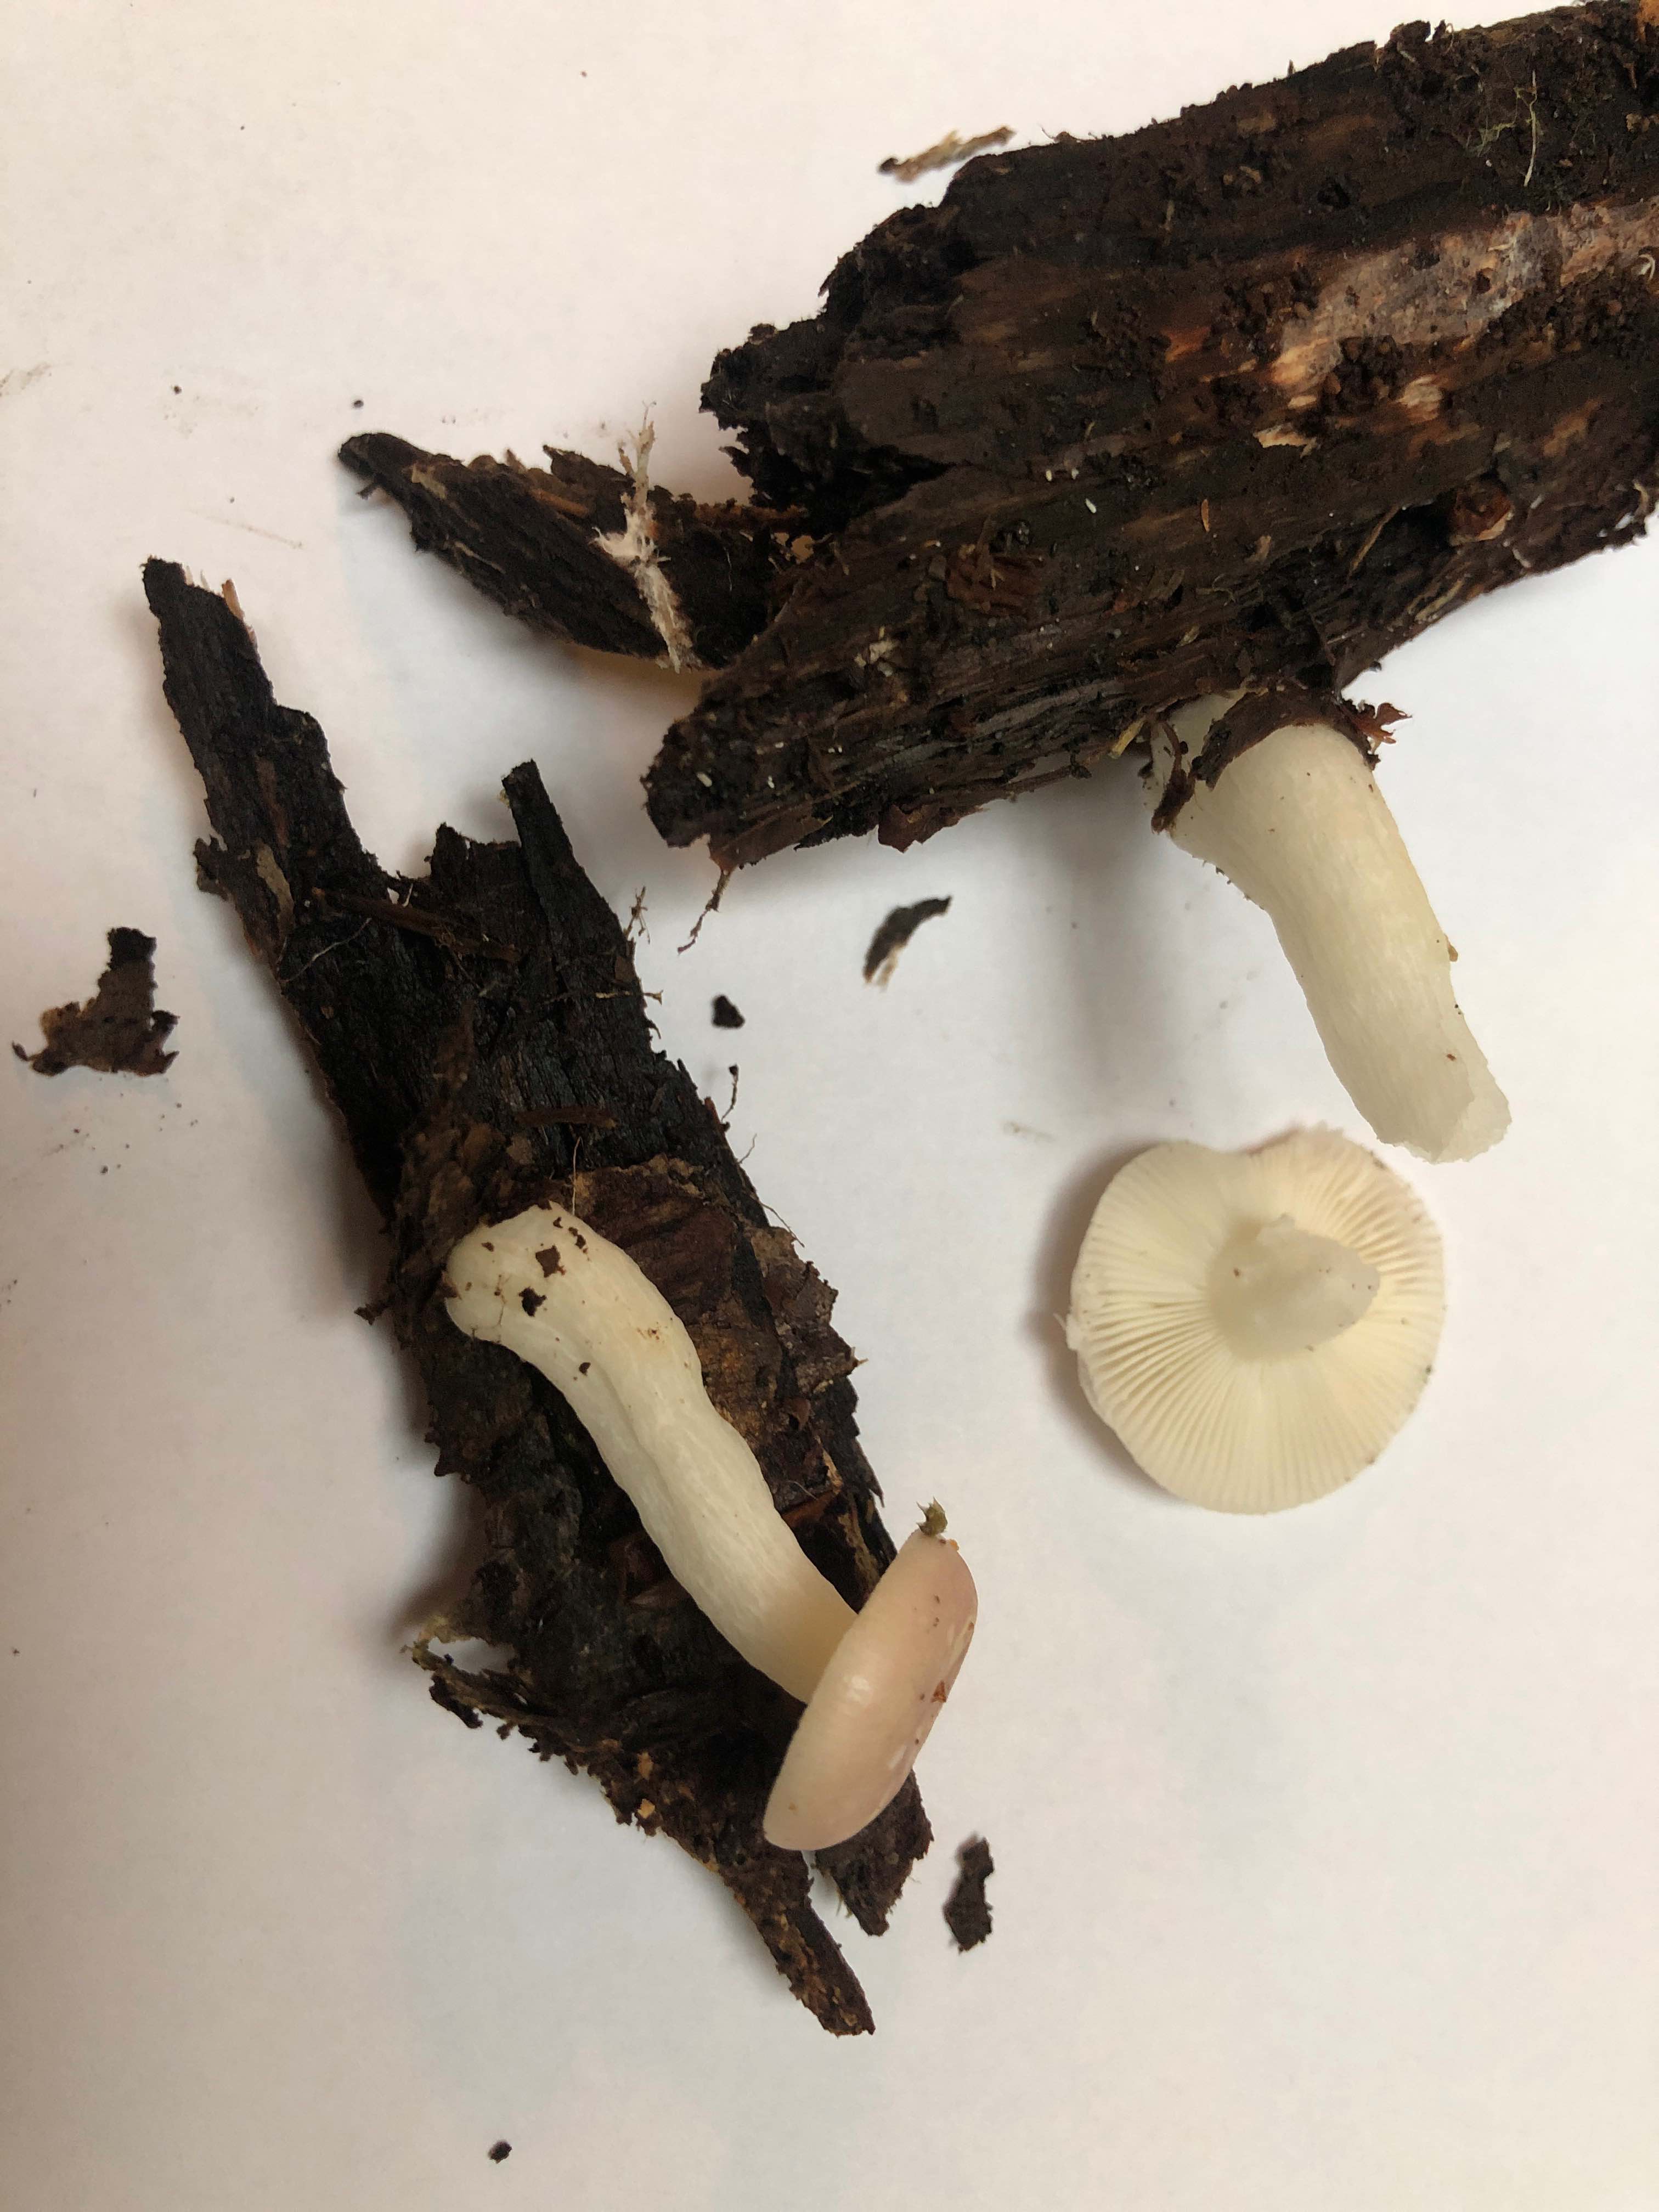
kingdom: Fungi
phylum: Basidiomycota
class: Agaricomycetes
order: Russulales
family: Russulaceae
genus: Russula
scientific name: Russula betularum
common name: bleg gift-skørhat
